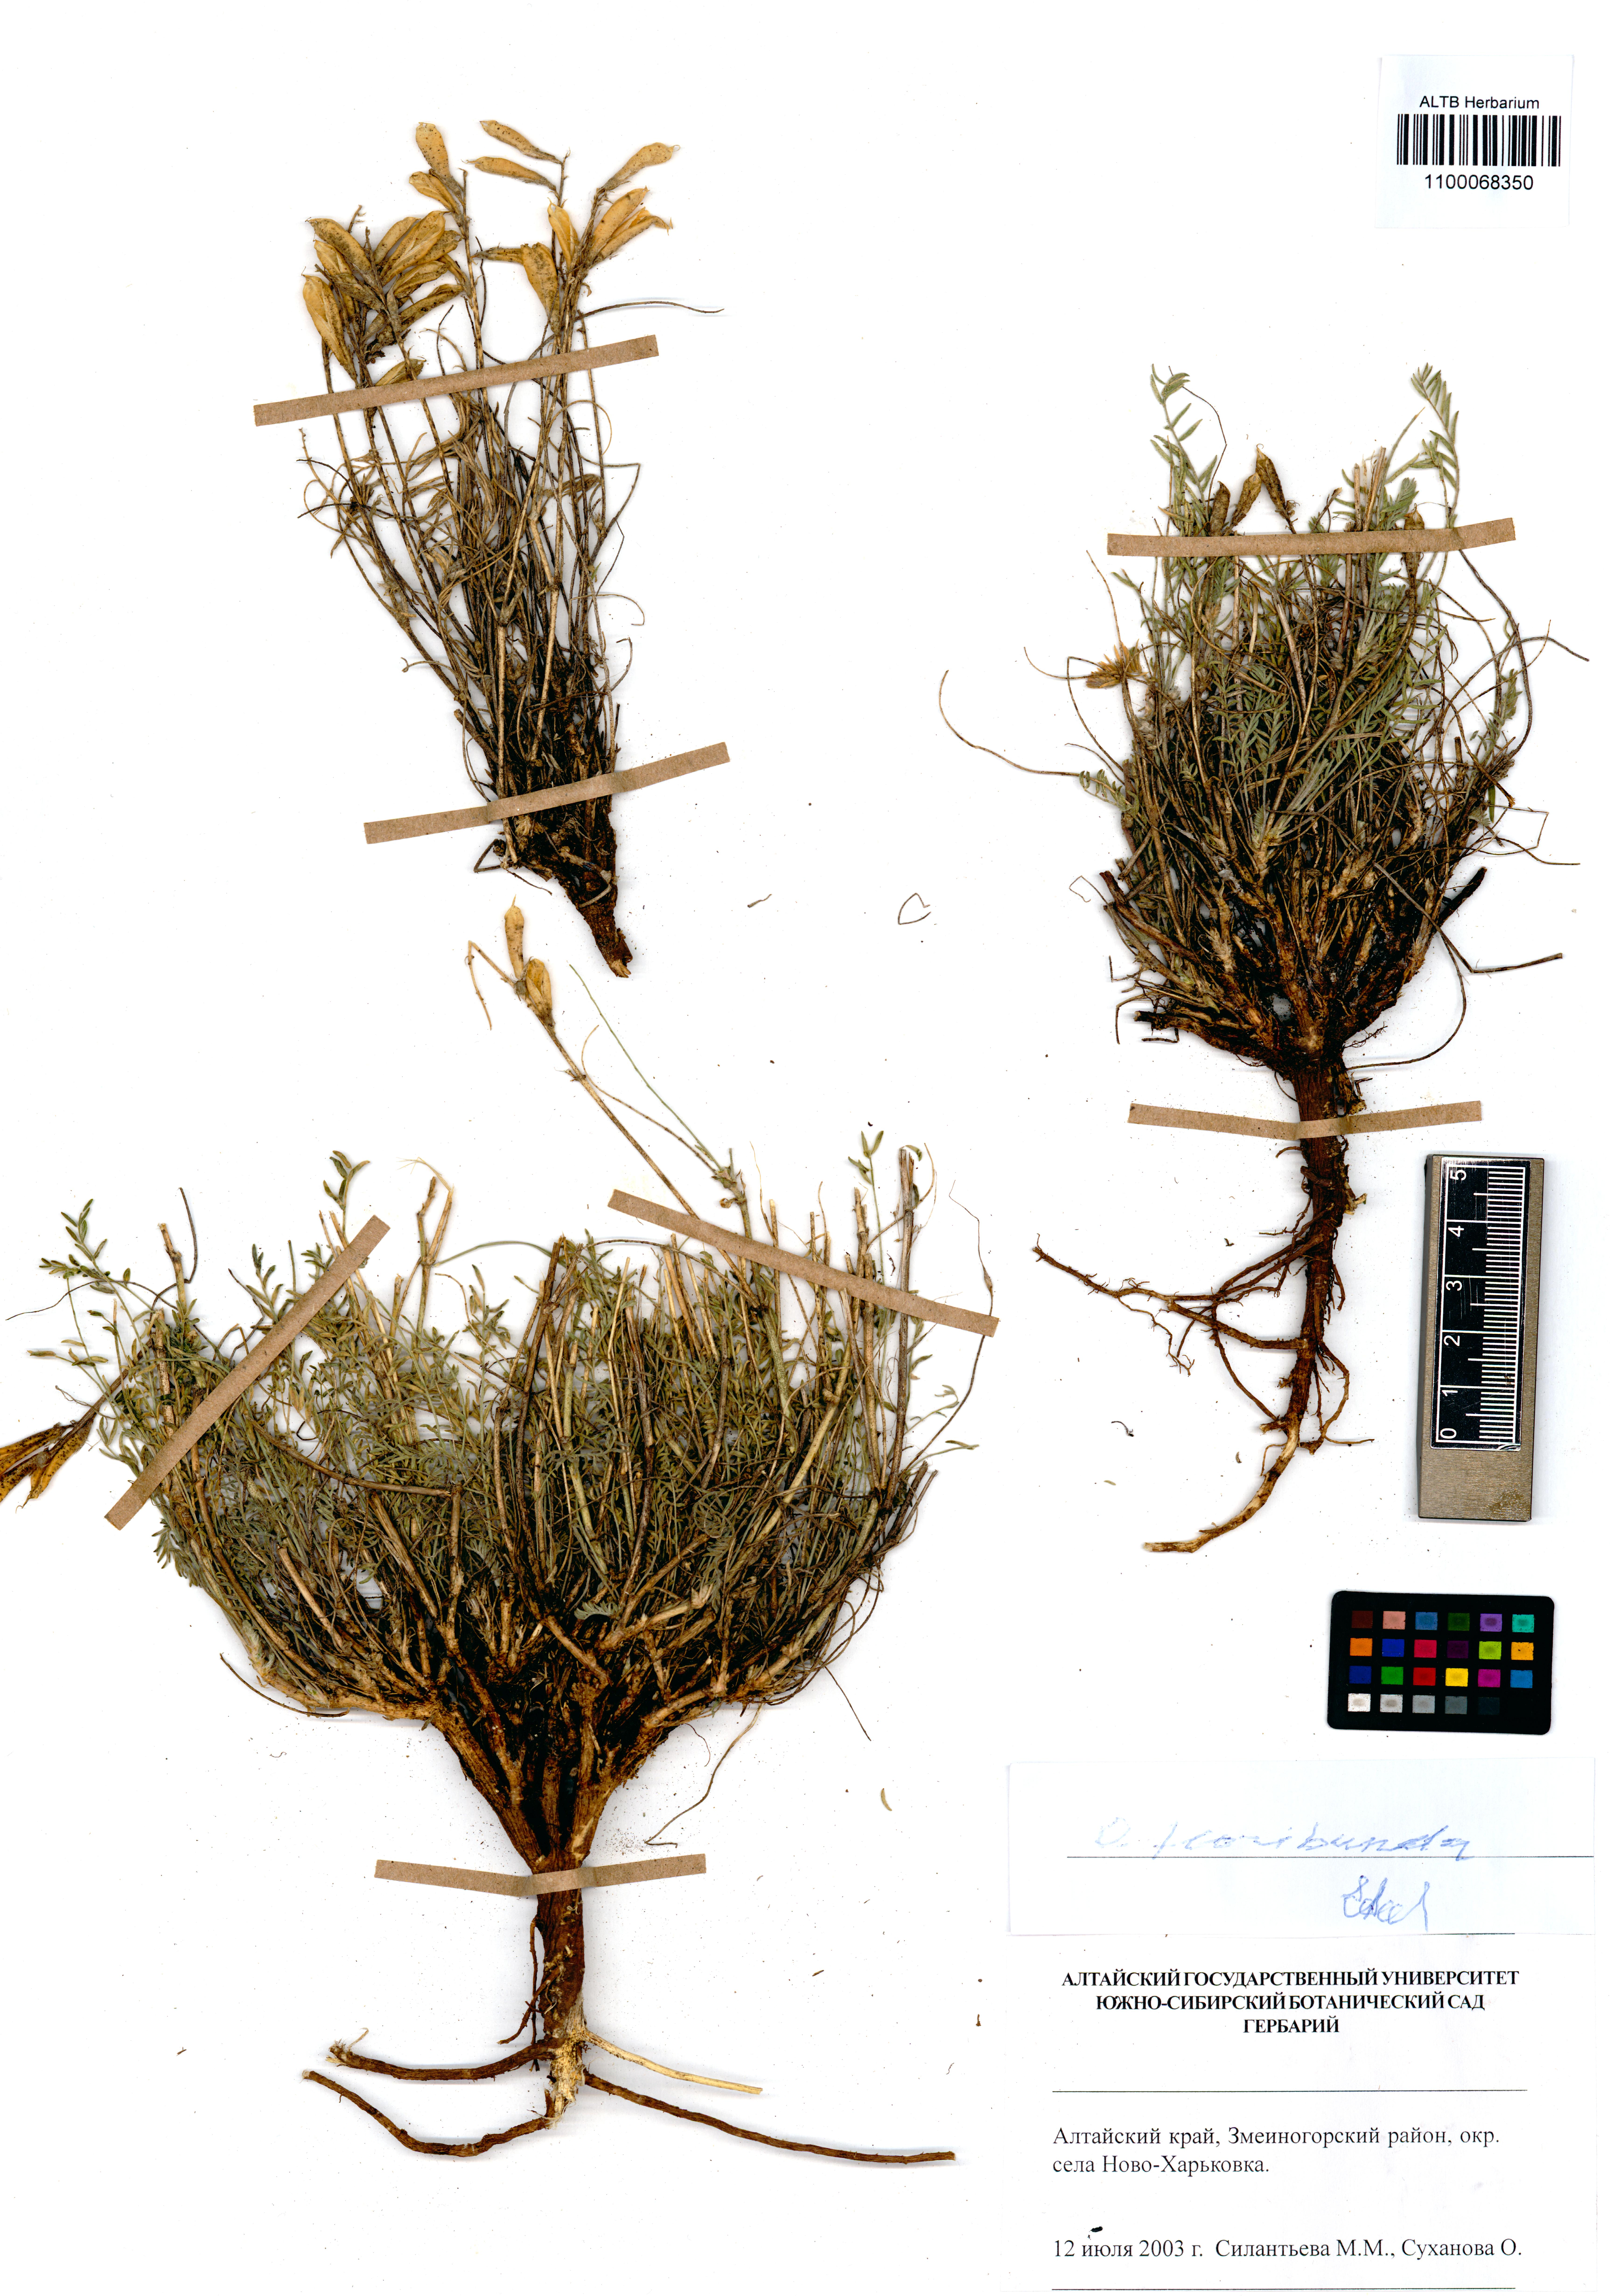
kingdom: Plantae
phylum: Tracheophyta
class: Magnoliopsida
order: Fabales
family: Fabaceae
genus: Oxytropis
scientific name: Oxytropis floribunda
